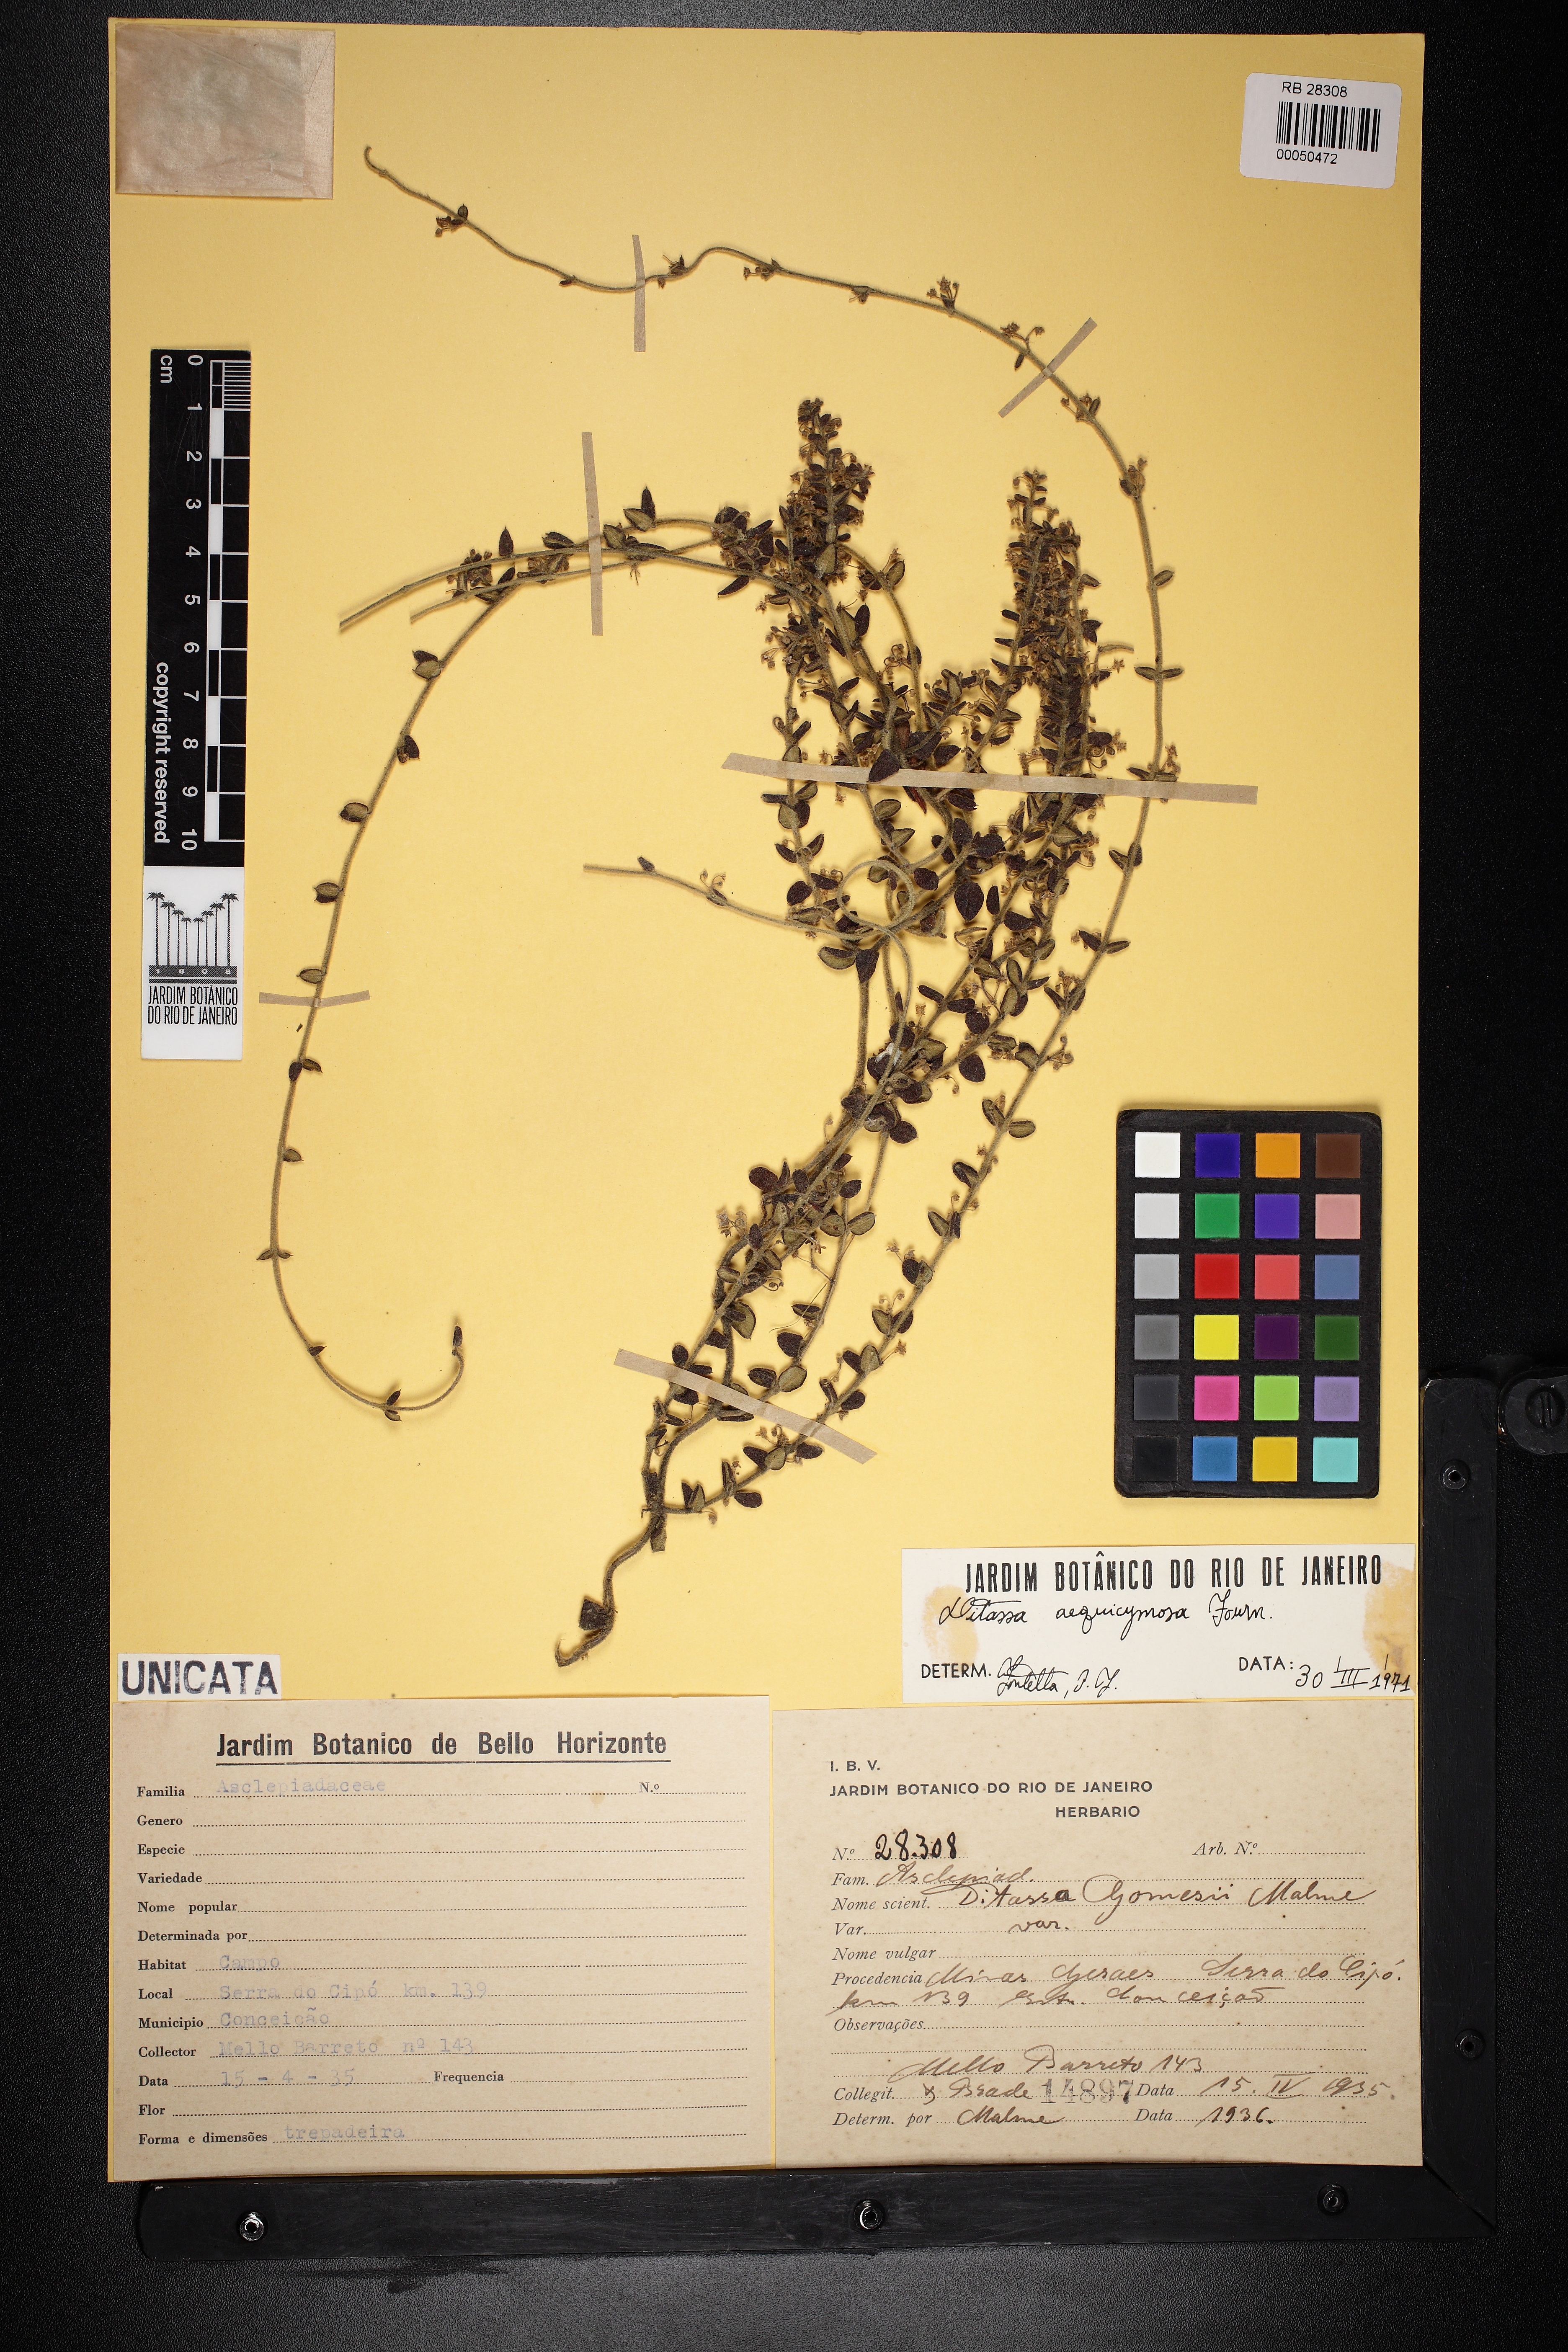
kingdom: Plantae
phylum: Tracheophyta
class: Magnoliopsida
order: Gentianales
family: Apocynaceae
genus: Ditassa
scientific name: Ditassa aequicymosa
